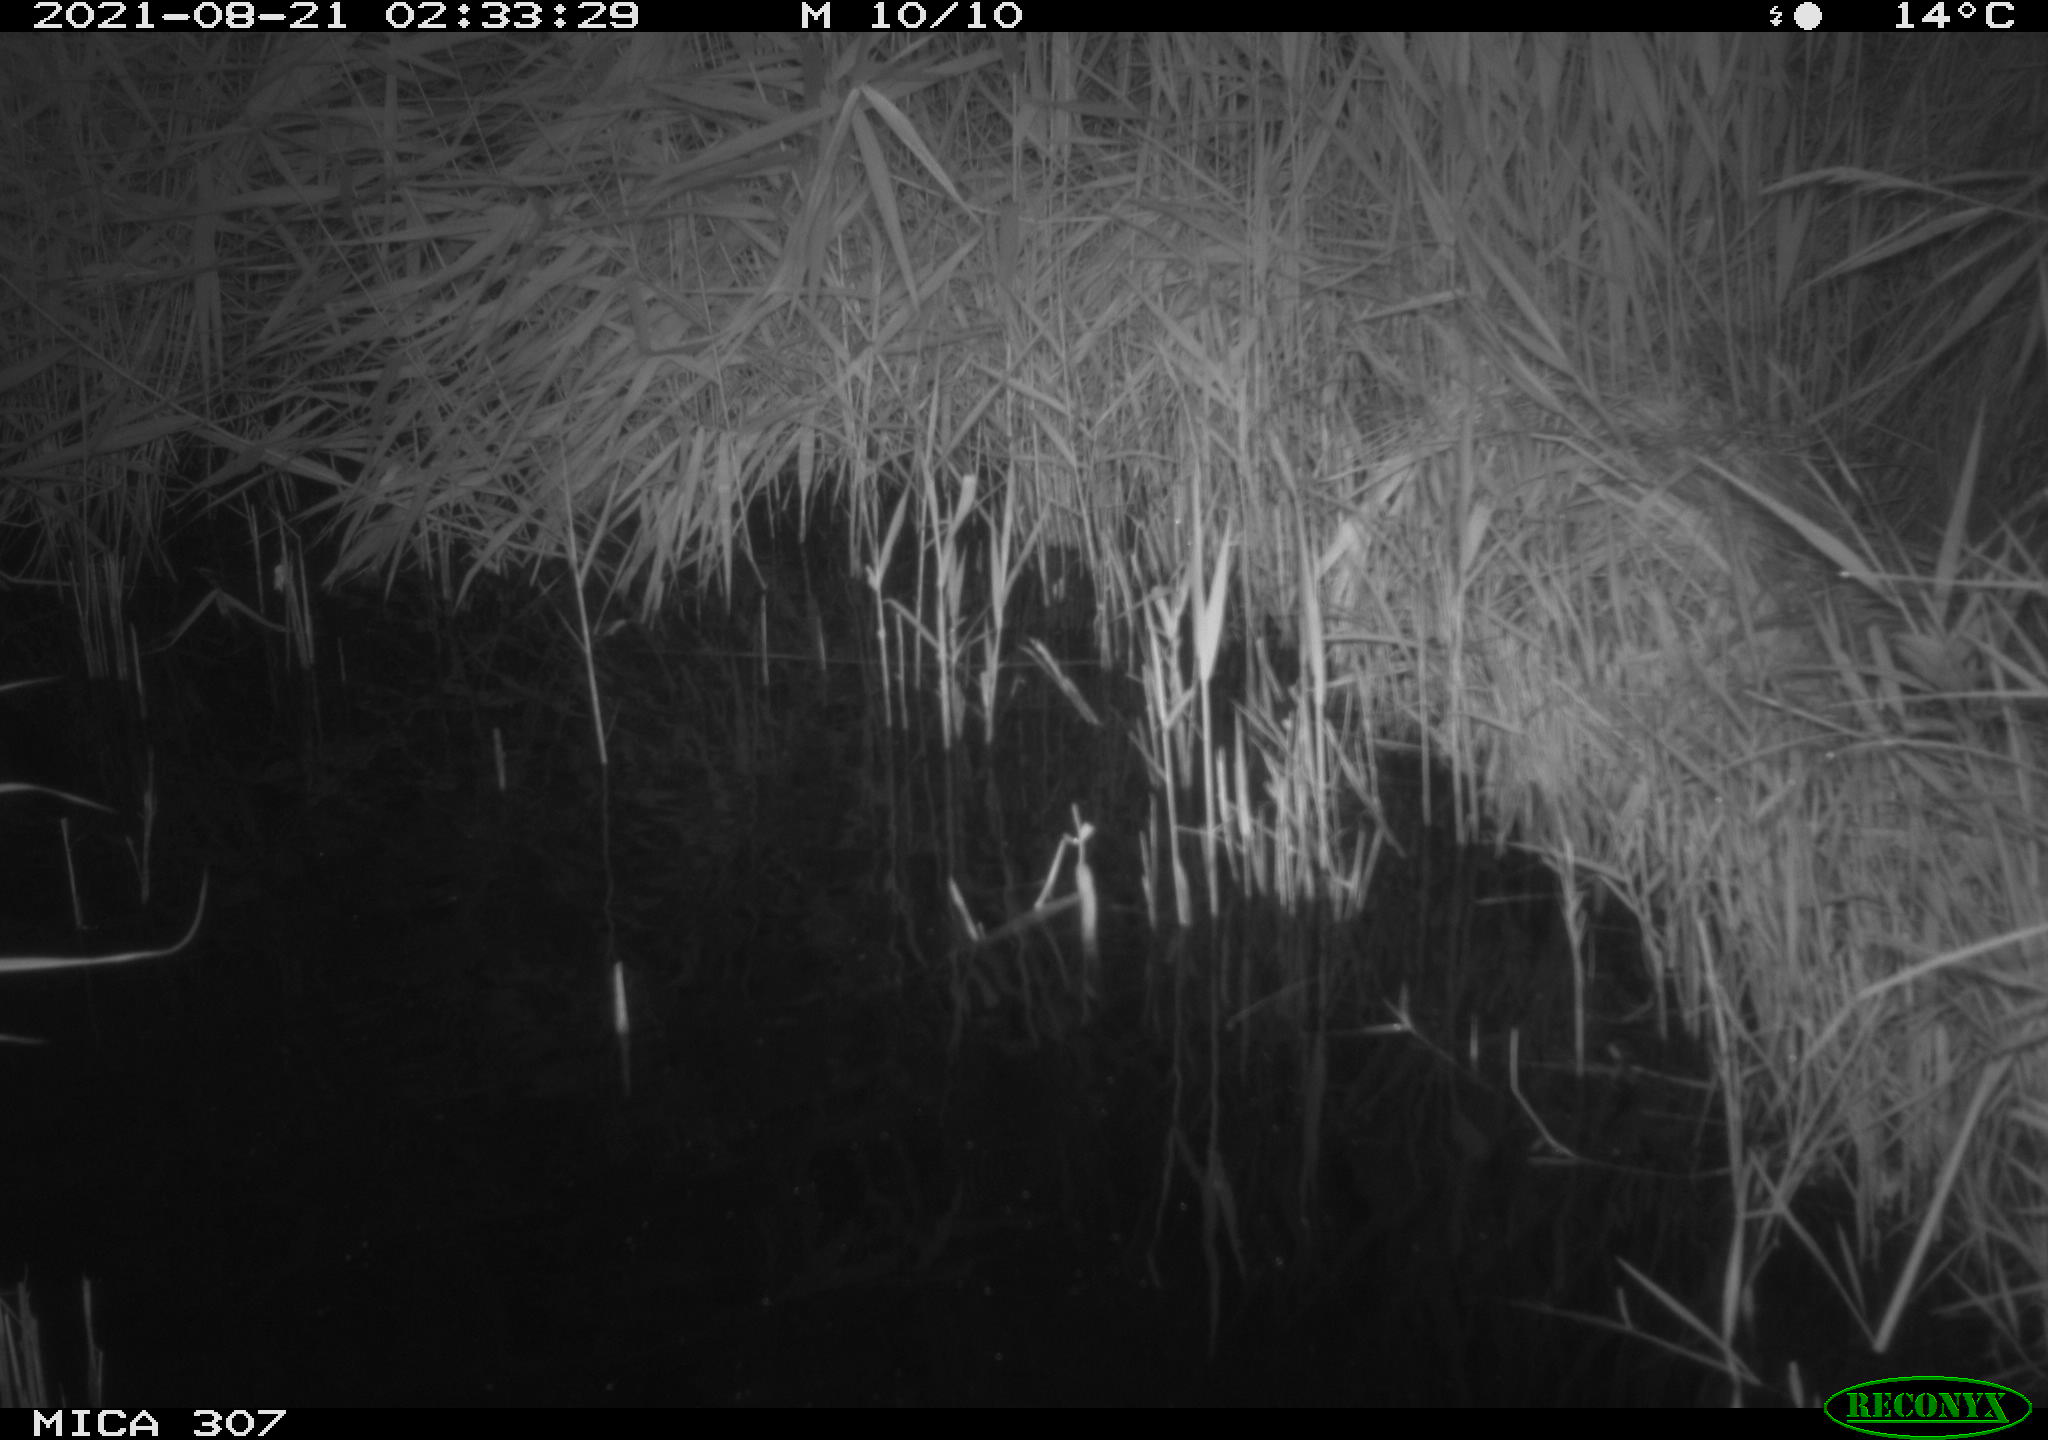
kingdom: Animalia
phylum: Chordata
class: Mammalia
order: Rodentia
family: Muridae
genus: Rattus
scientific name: Rattus norvegicus
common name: Brown rat
